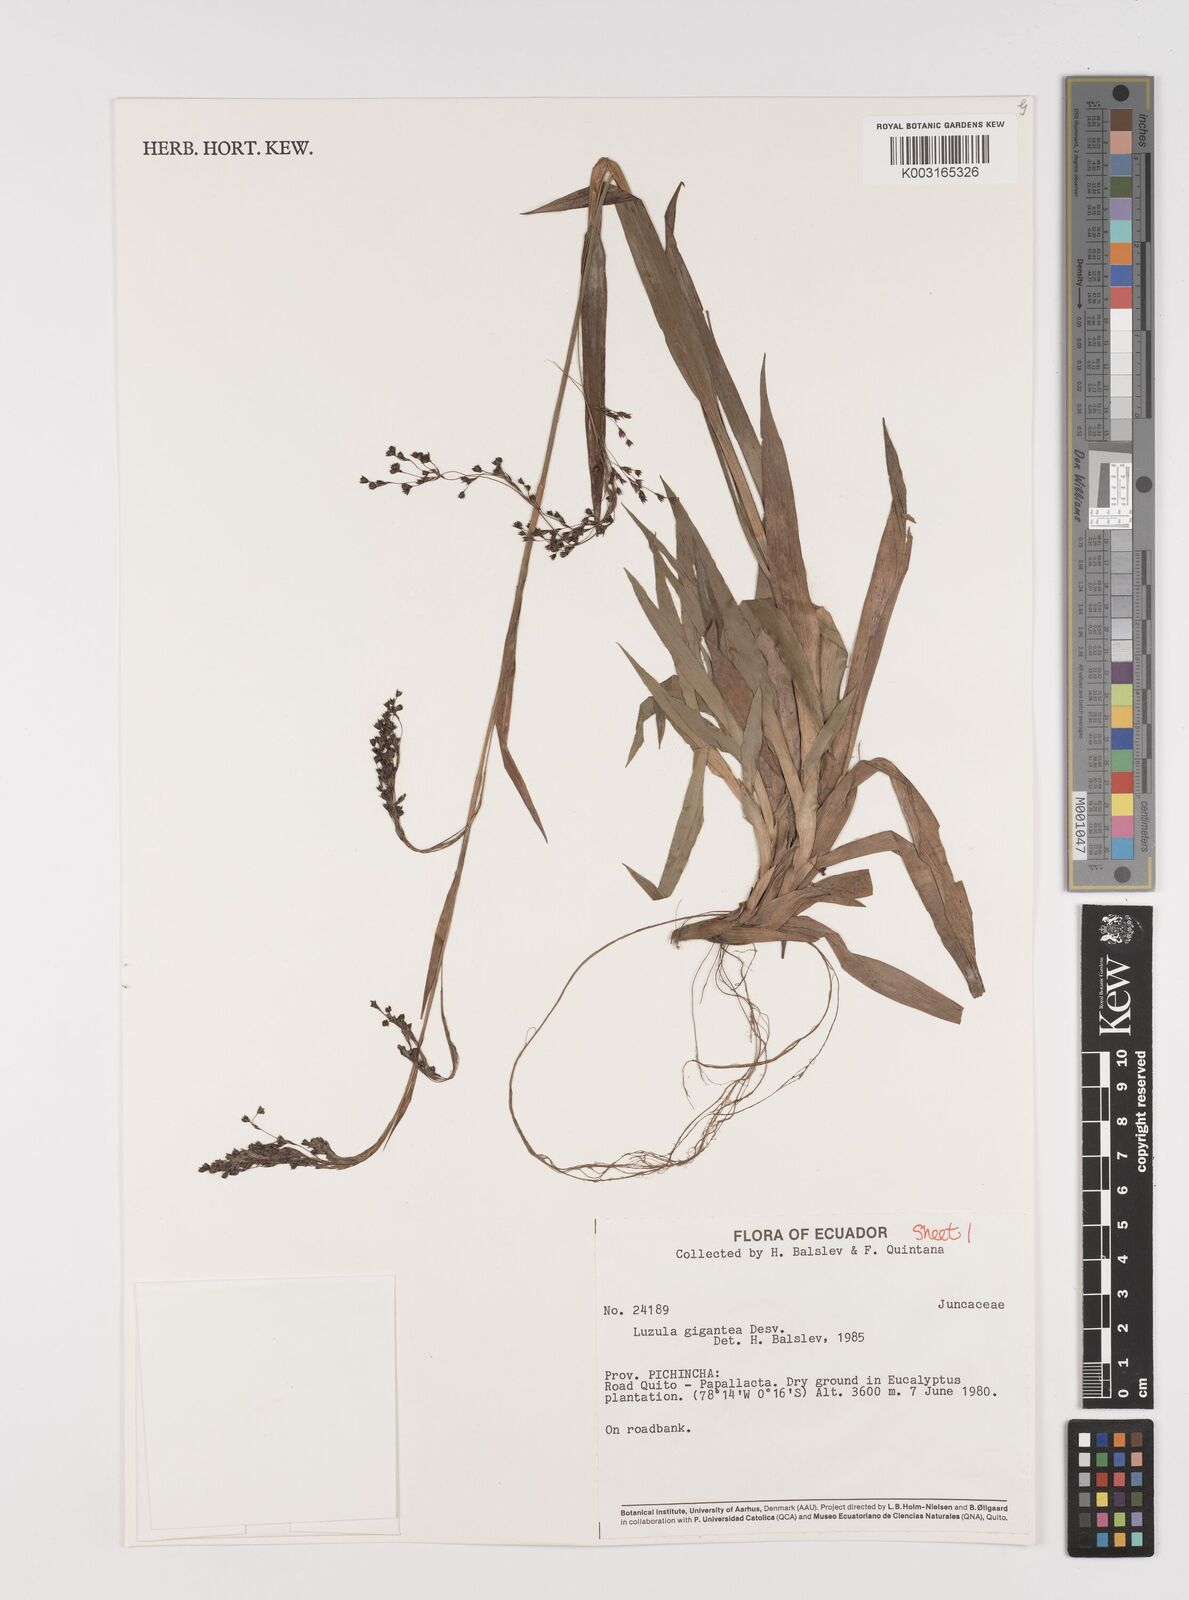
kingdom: Plantae
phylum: Tracheophyta
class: Liliopsida
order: Poales
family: Juncaceae
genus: Luzula
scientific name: Luzula gigantea
